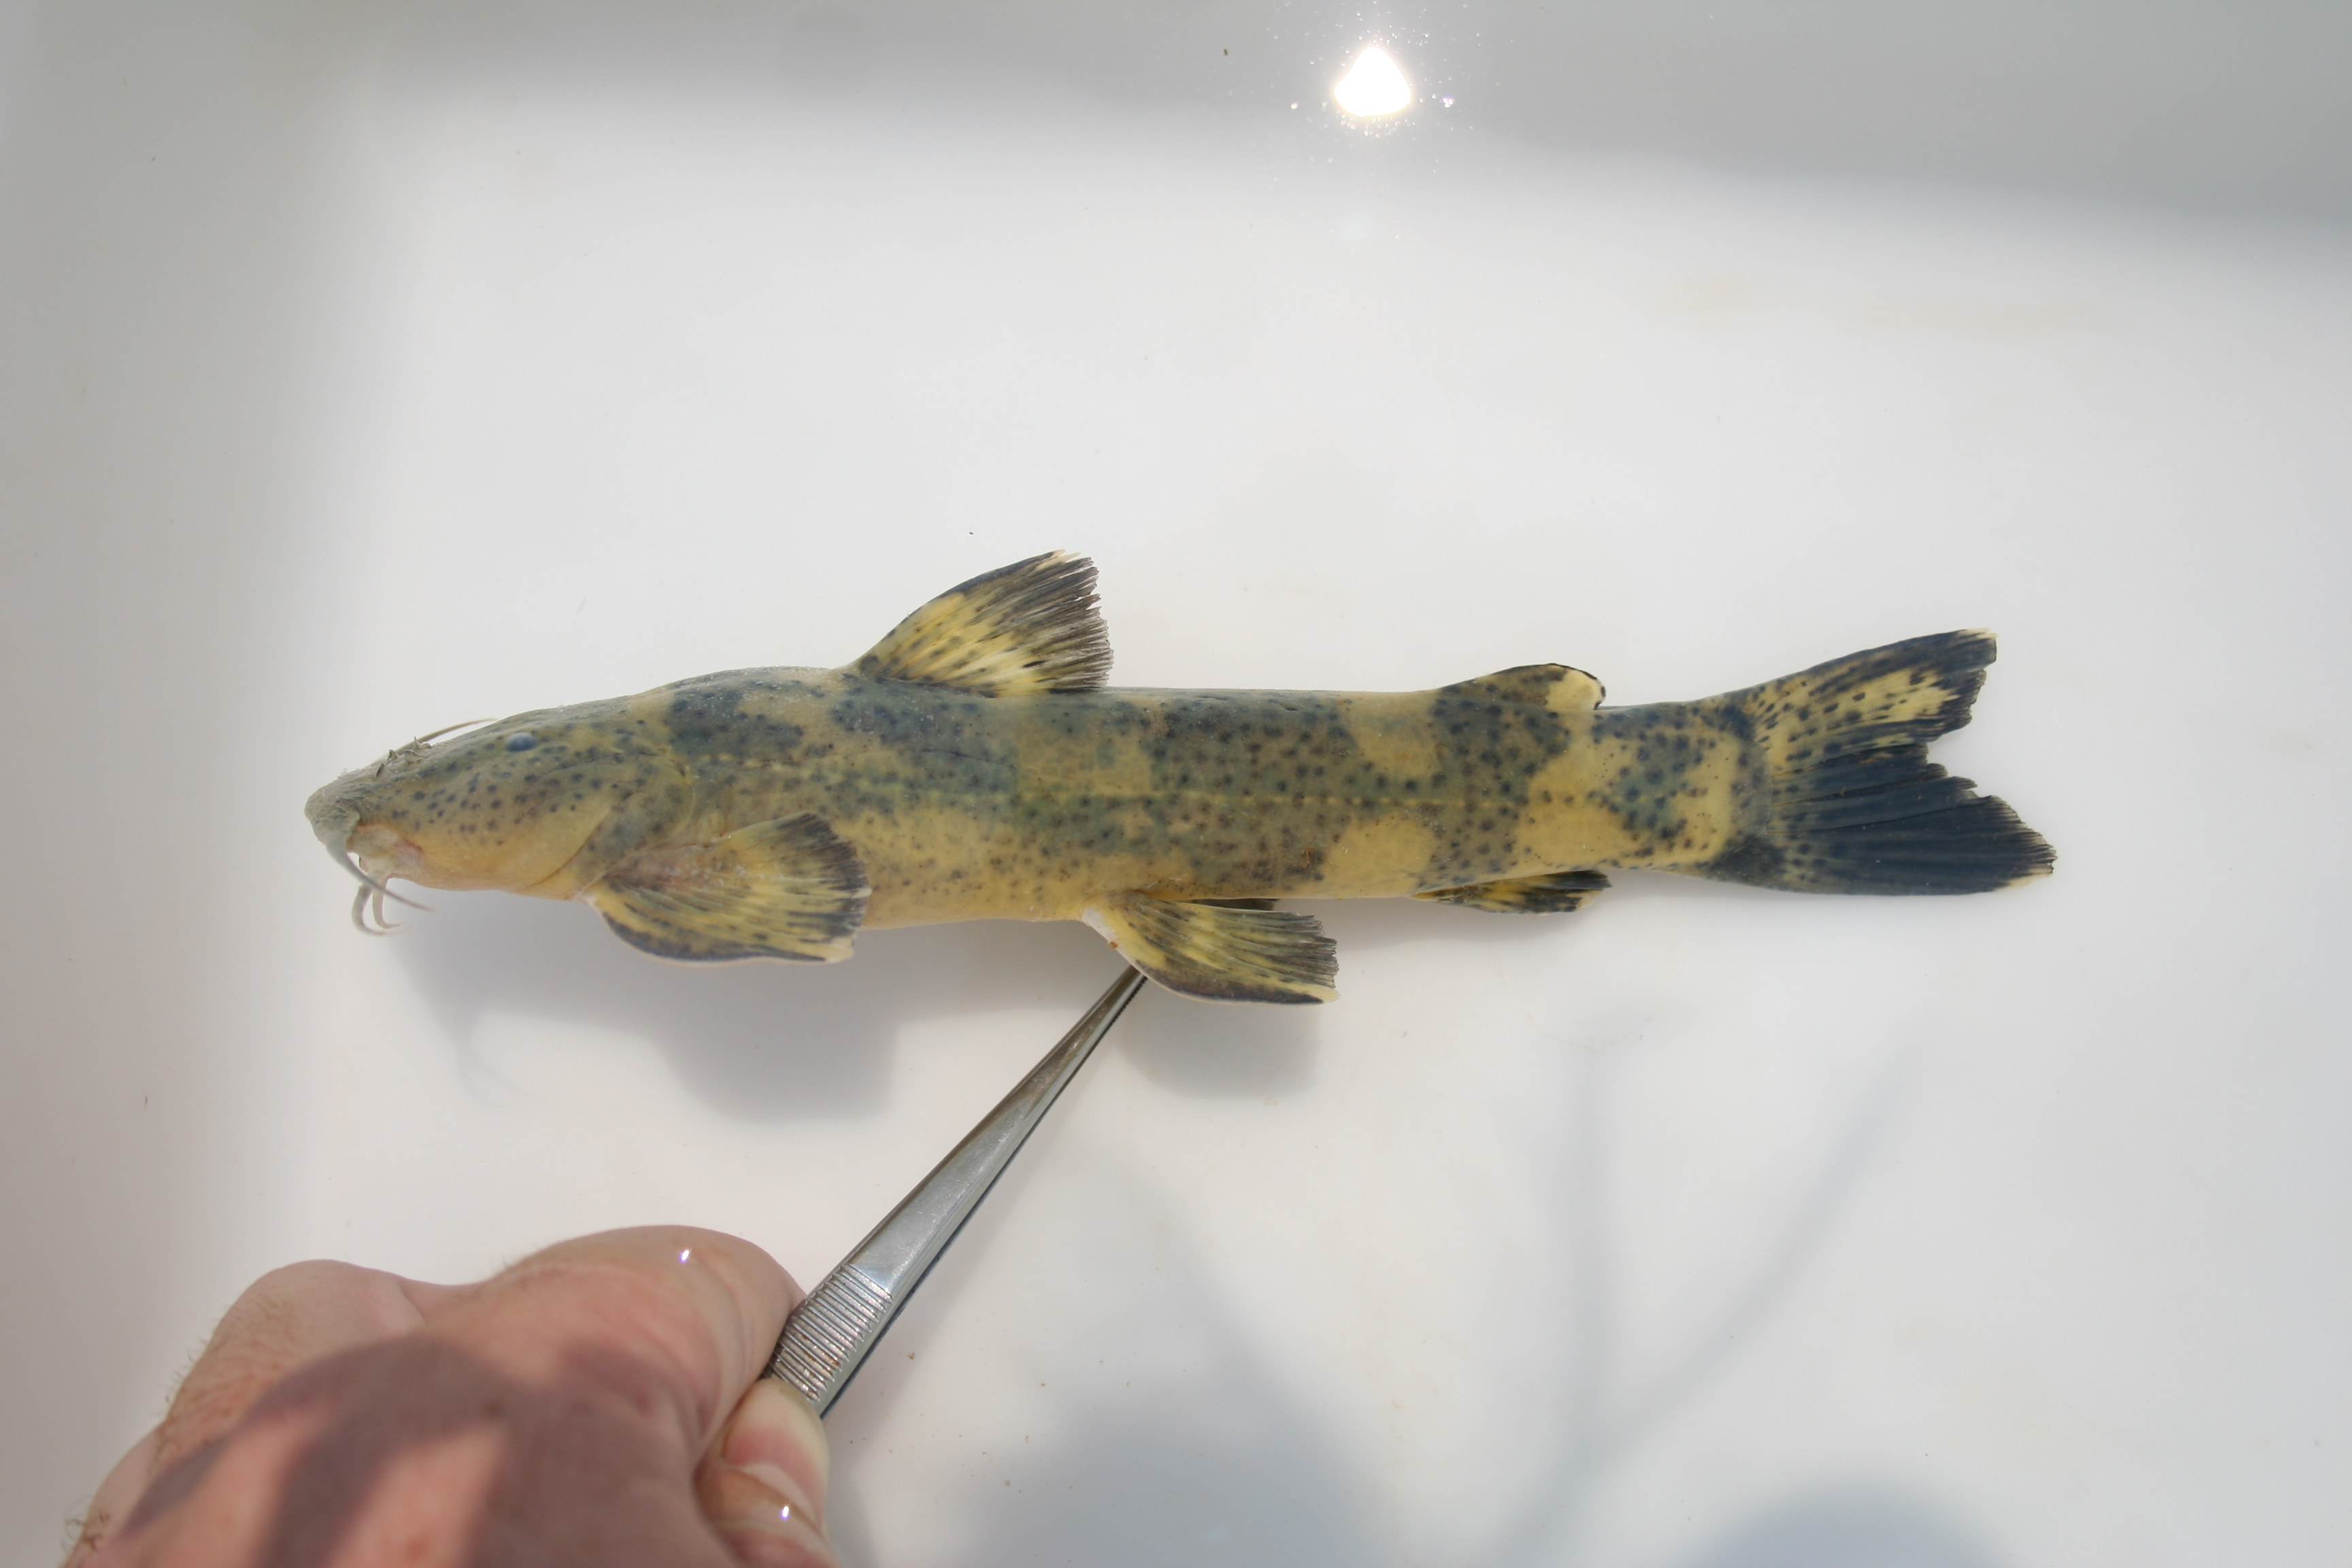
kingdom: Animalia
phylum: Chordata
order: Siluriformes
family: Amphiliidae
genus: Amphilius
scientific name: Amphilius pagei
